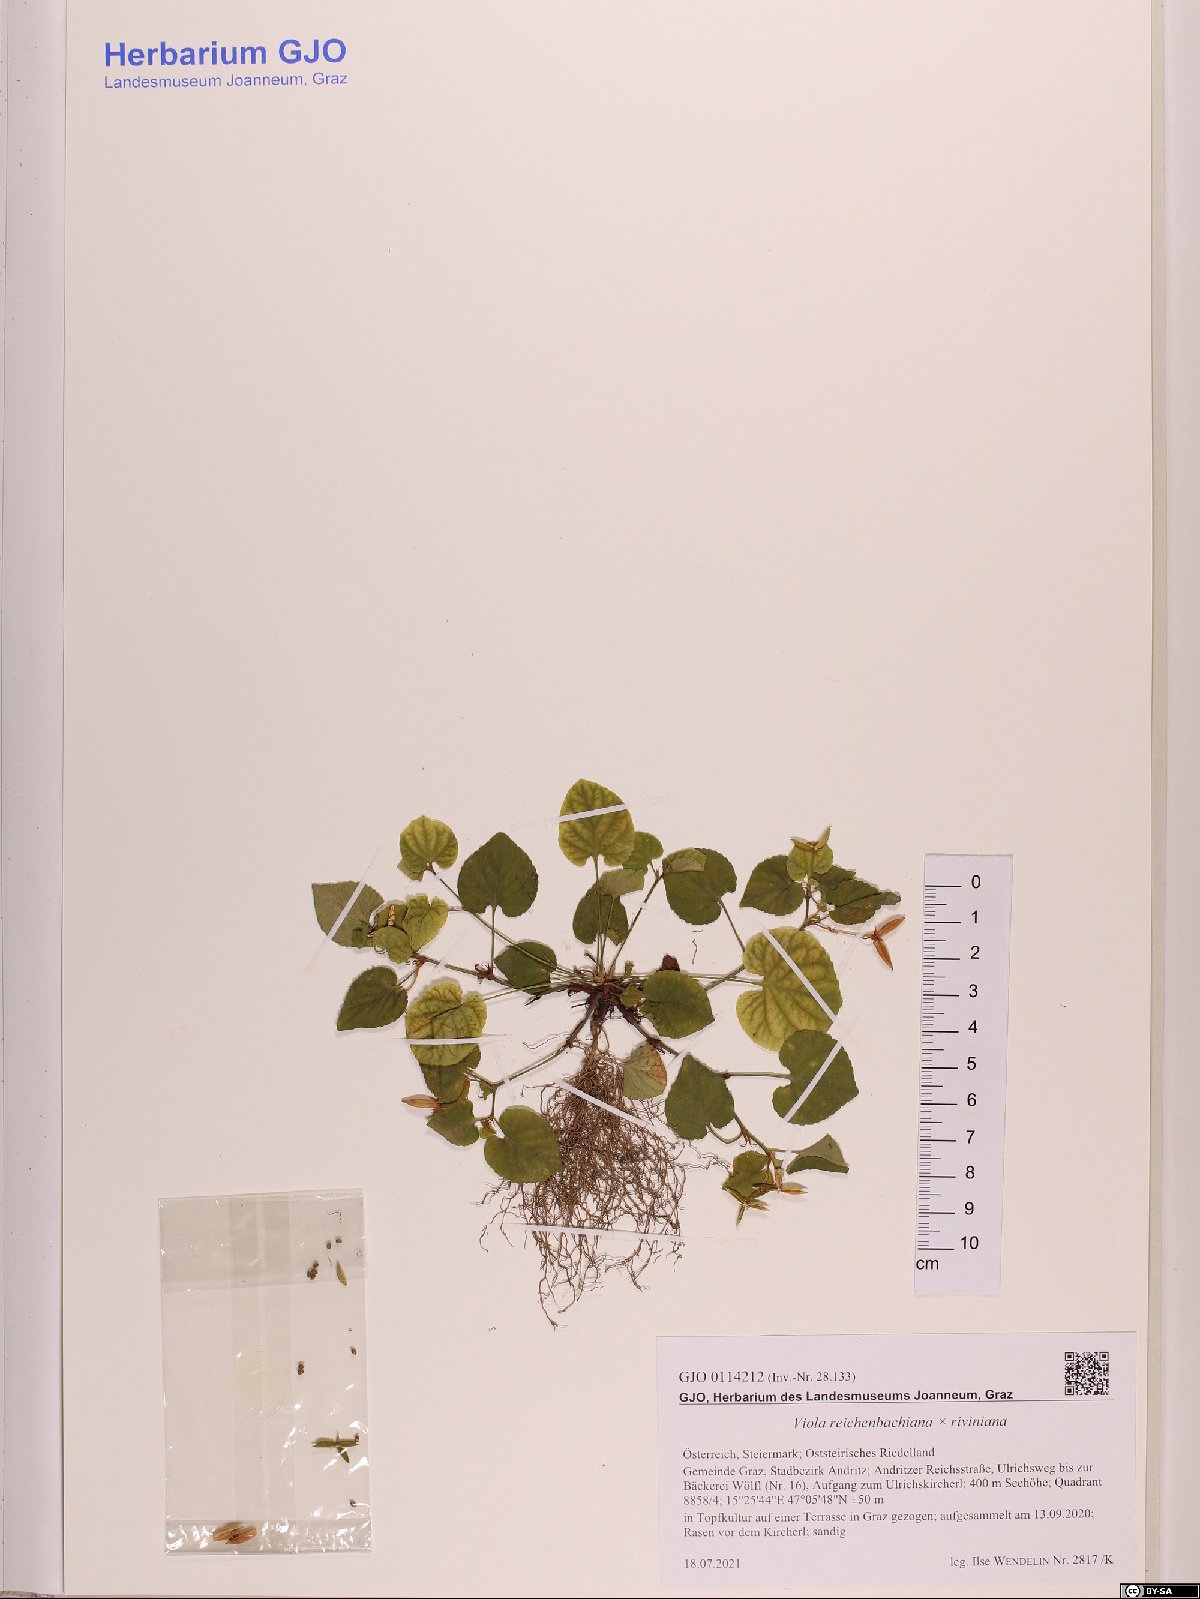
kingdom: Plantae
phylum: Tracheophyta
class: Magnoliopsida
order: Malpighiales
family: Violaceae
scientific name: Violaceae
